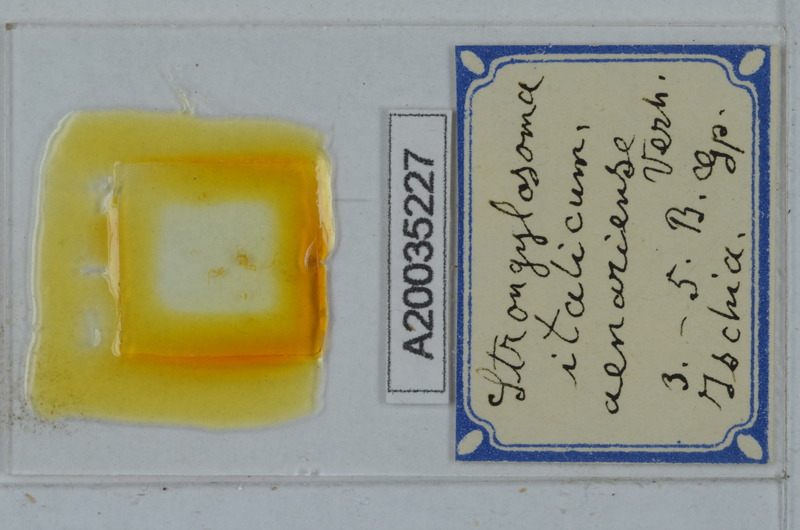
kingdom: Animalia
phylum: Arthropoda
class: Diplopoda
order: Polydesmida
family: Paradoxosomatidae
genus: Strongylosoma
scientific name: Strongylosoma italica
